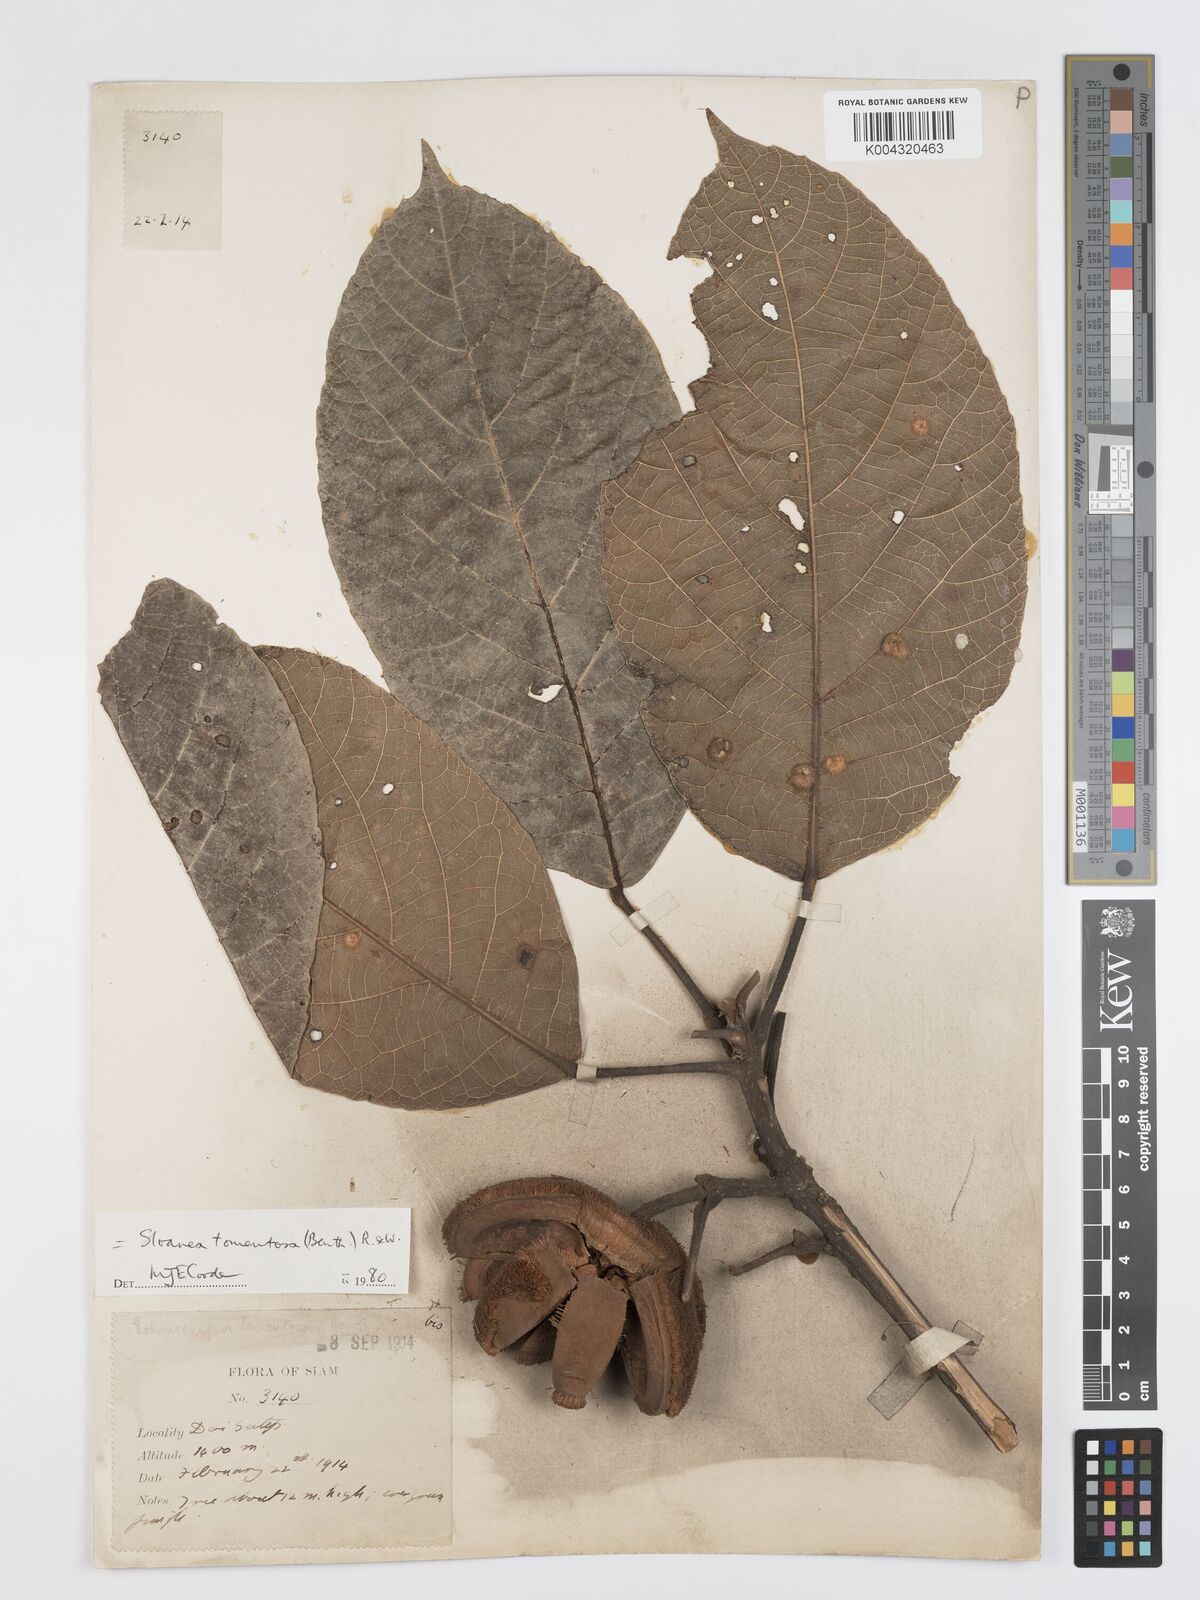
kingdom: Plantae
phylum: Tracheophyta
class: Magnoliopsida
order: Oxalidales
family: Elaeocarpaceae
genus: Sloanea
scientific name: Sloanea tomentosa
